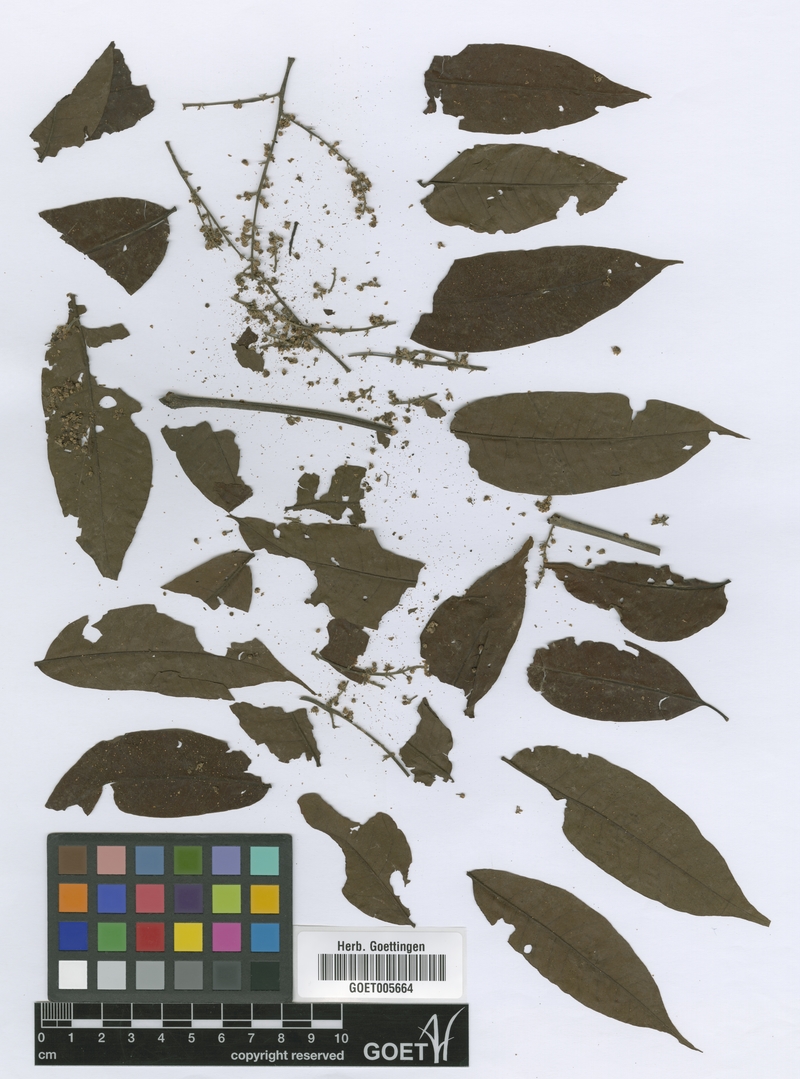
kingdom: Plantae
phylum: Tracheophyta
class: Magnoliopsida
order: Sapindales
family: Anacardiaceae
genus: Antrocaryon
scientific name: Antrocaryon klaineanum
